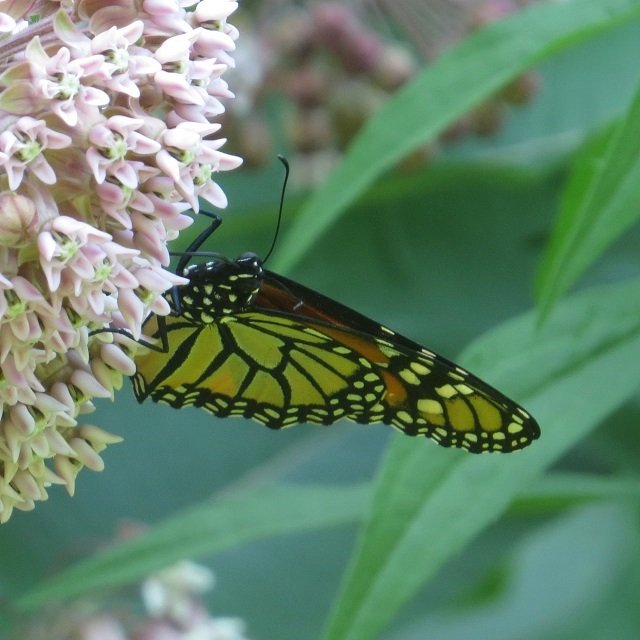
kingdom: Animalia
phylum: Arthropoda
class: Insecta
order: Lepidoptera
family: Nymphalidae
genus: Danaus
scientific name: Danaus plexippus
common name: Monarch
